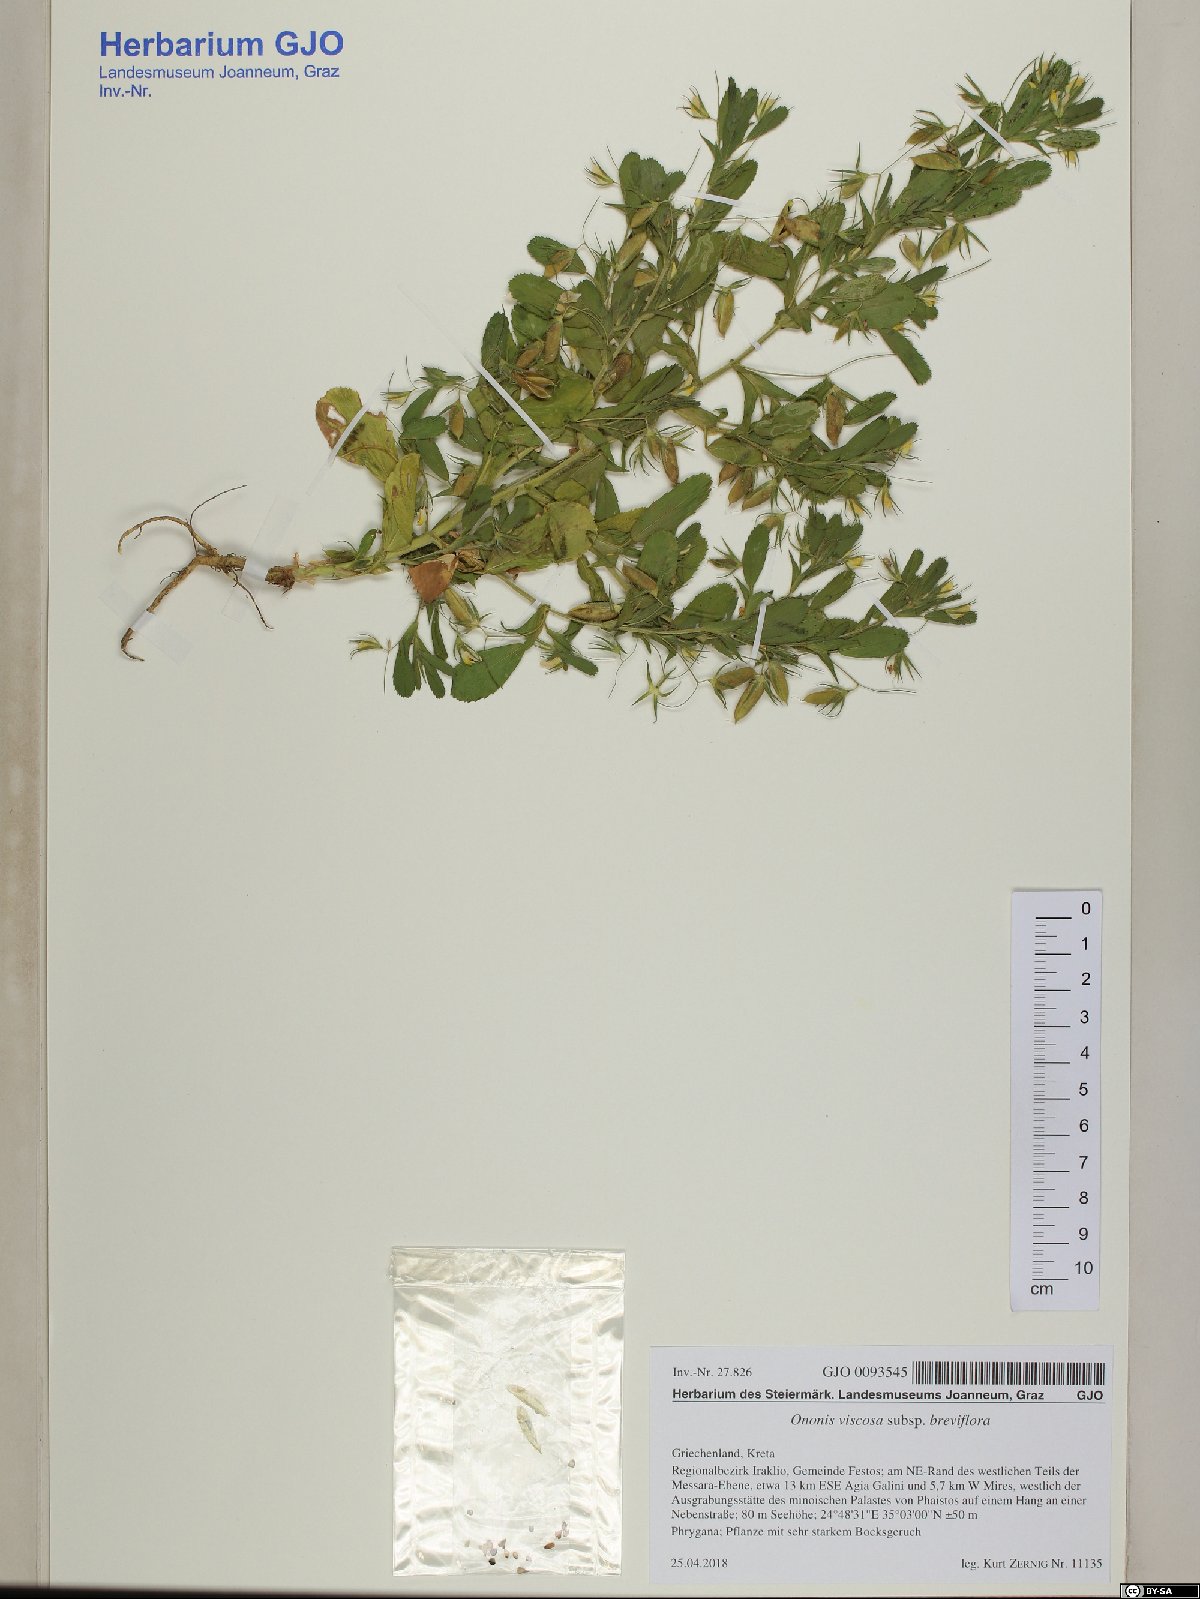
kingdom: Plantae
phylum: Tracheophyta
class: Magnoliopsida
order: Fabales
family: Fabaceae
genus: Ononis
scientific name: Ononis viscosa
